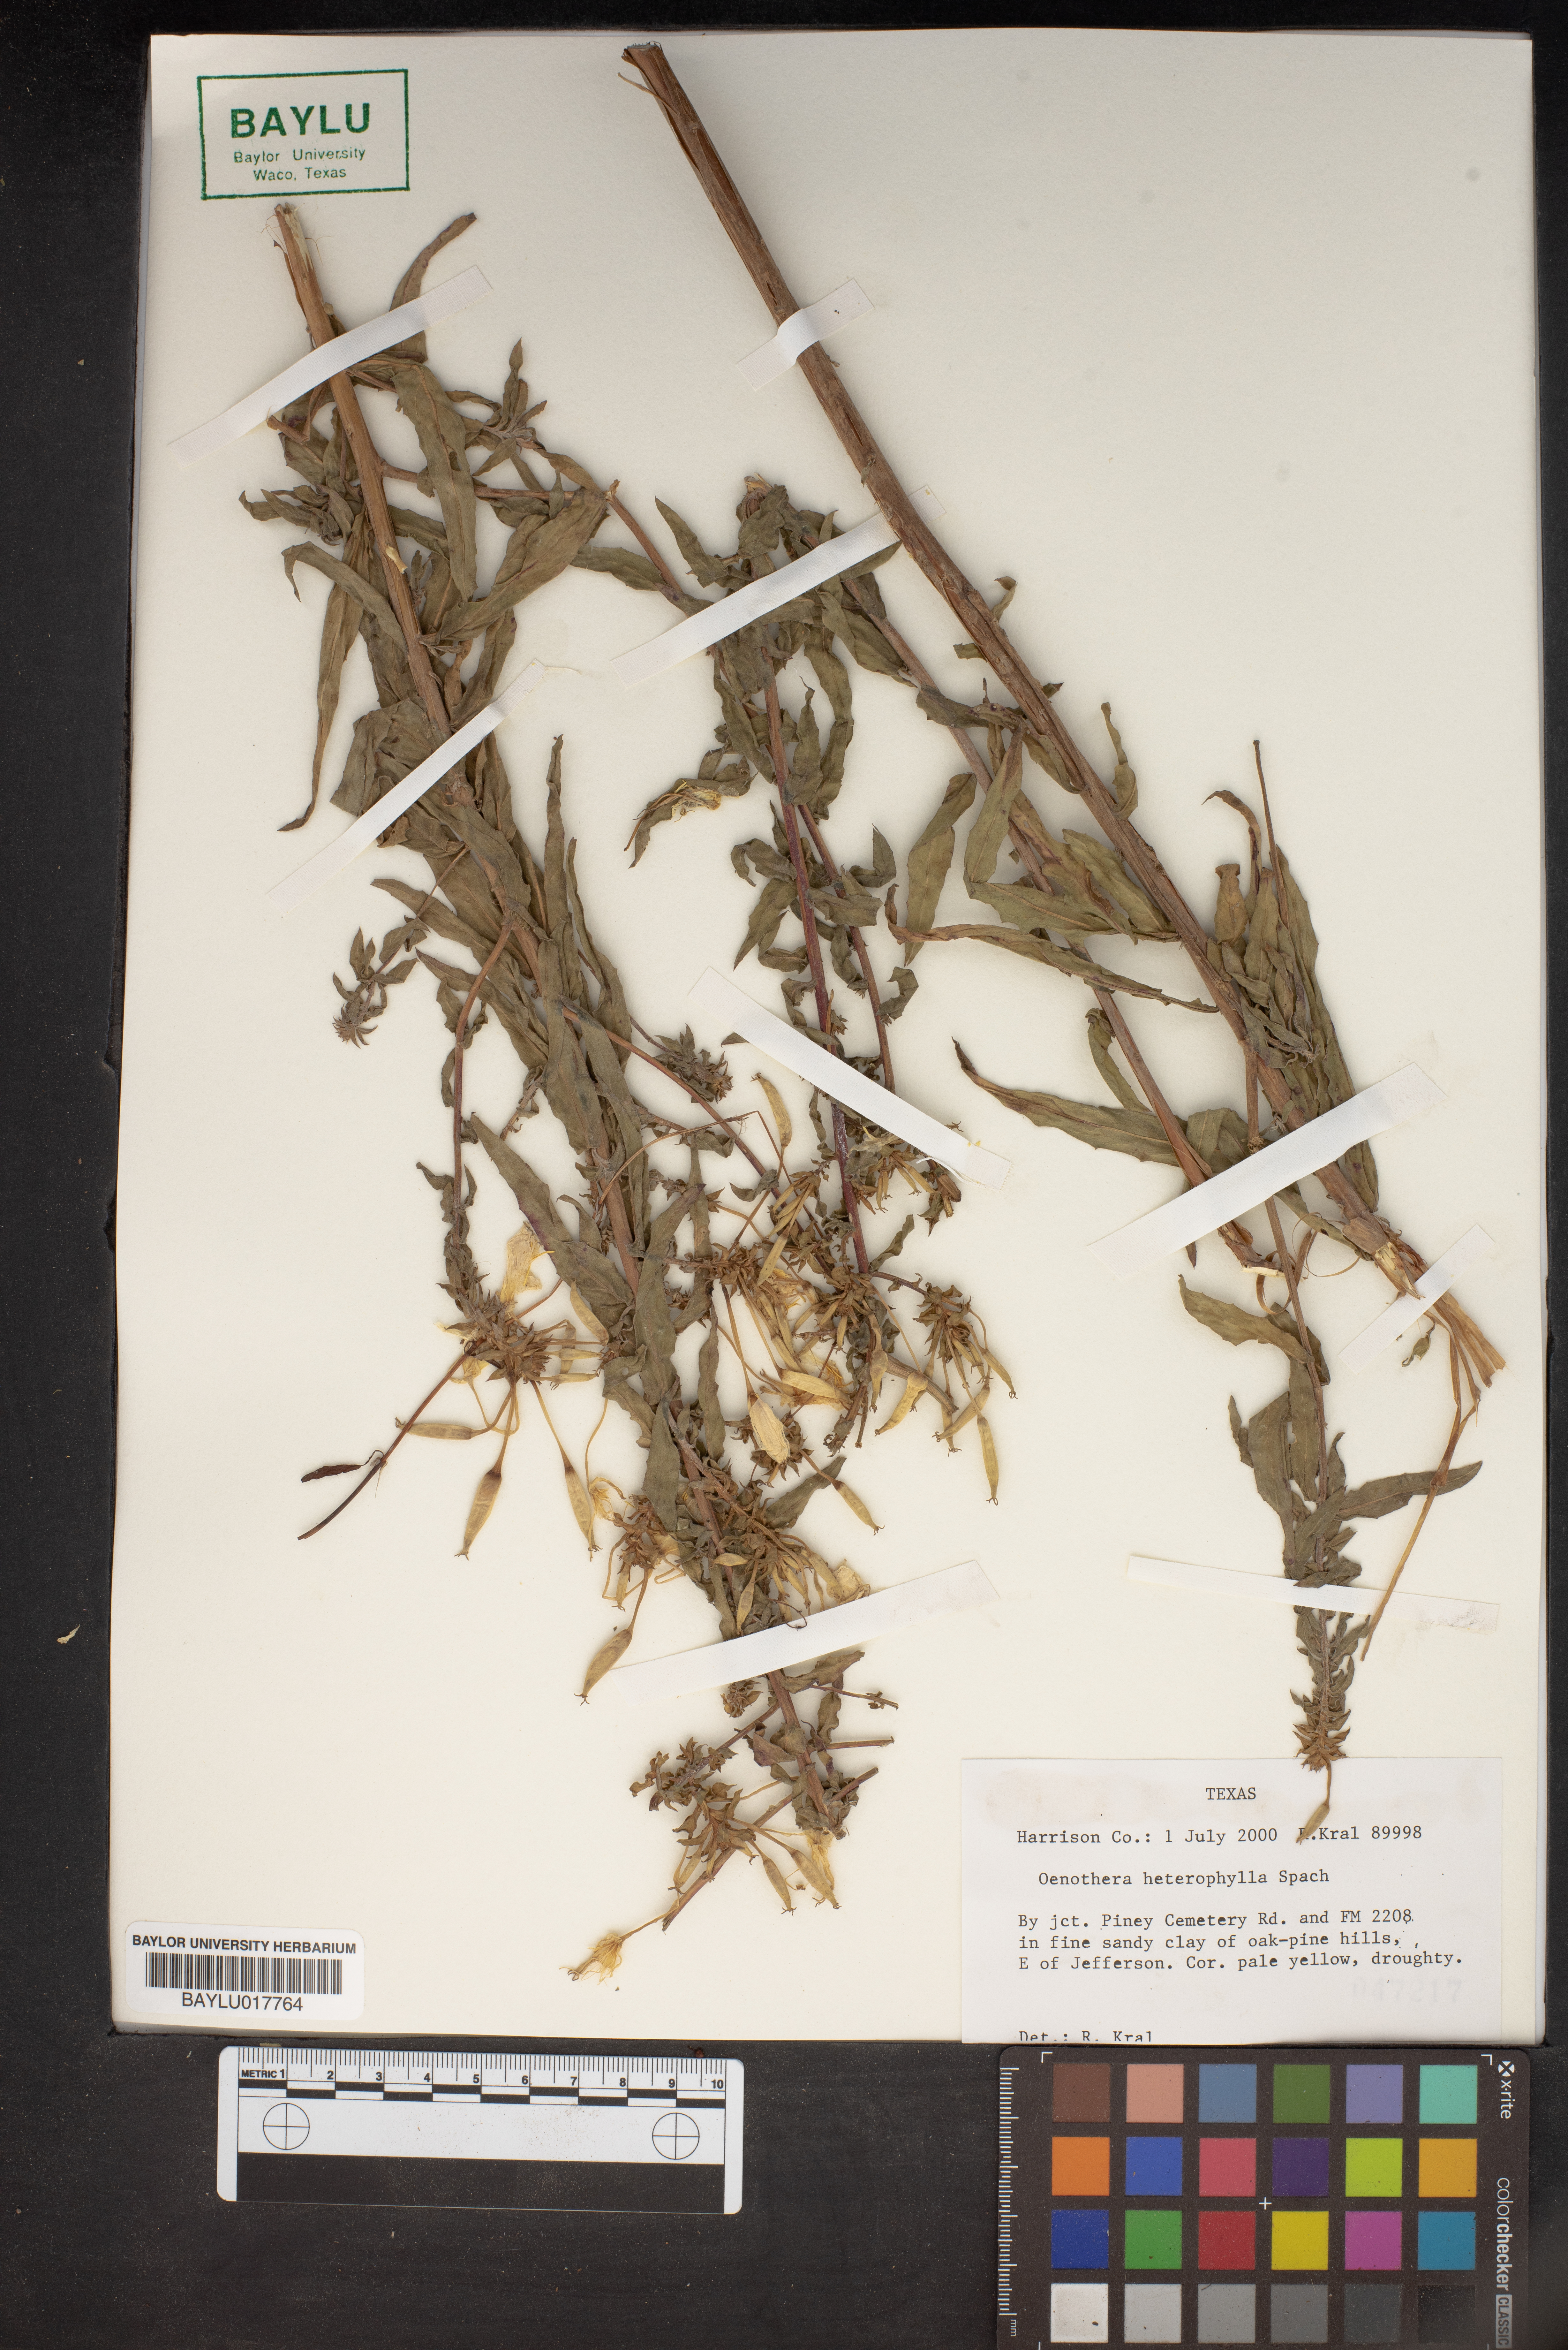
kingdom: Plantae
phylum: Tracheophyta
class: Magnoliopsida
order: Myrtales
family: Onagraceae
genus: Camissonia
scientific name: Camissonia dentata
